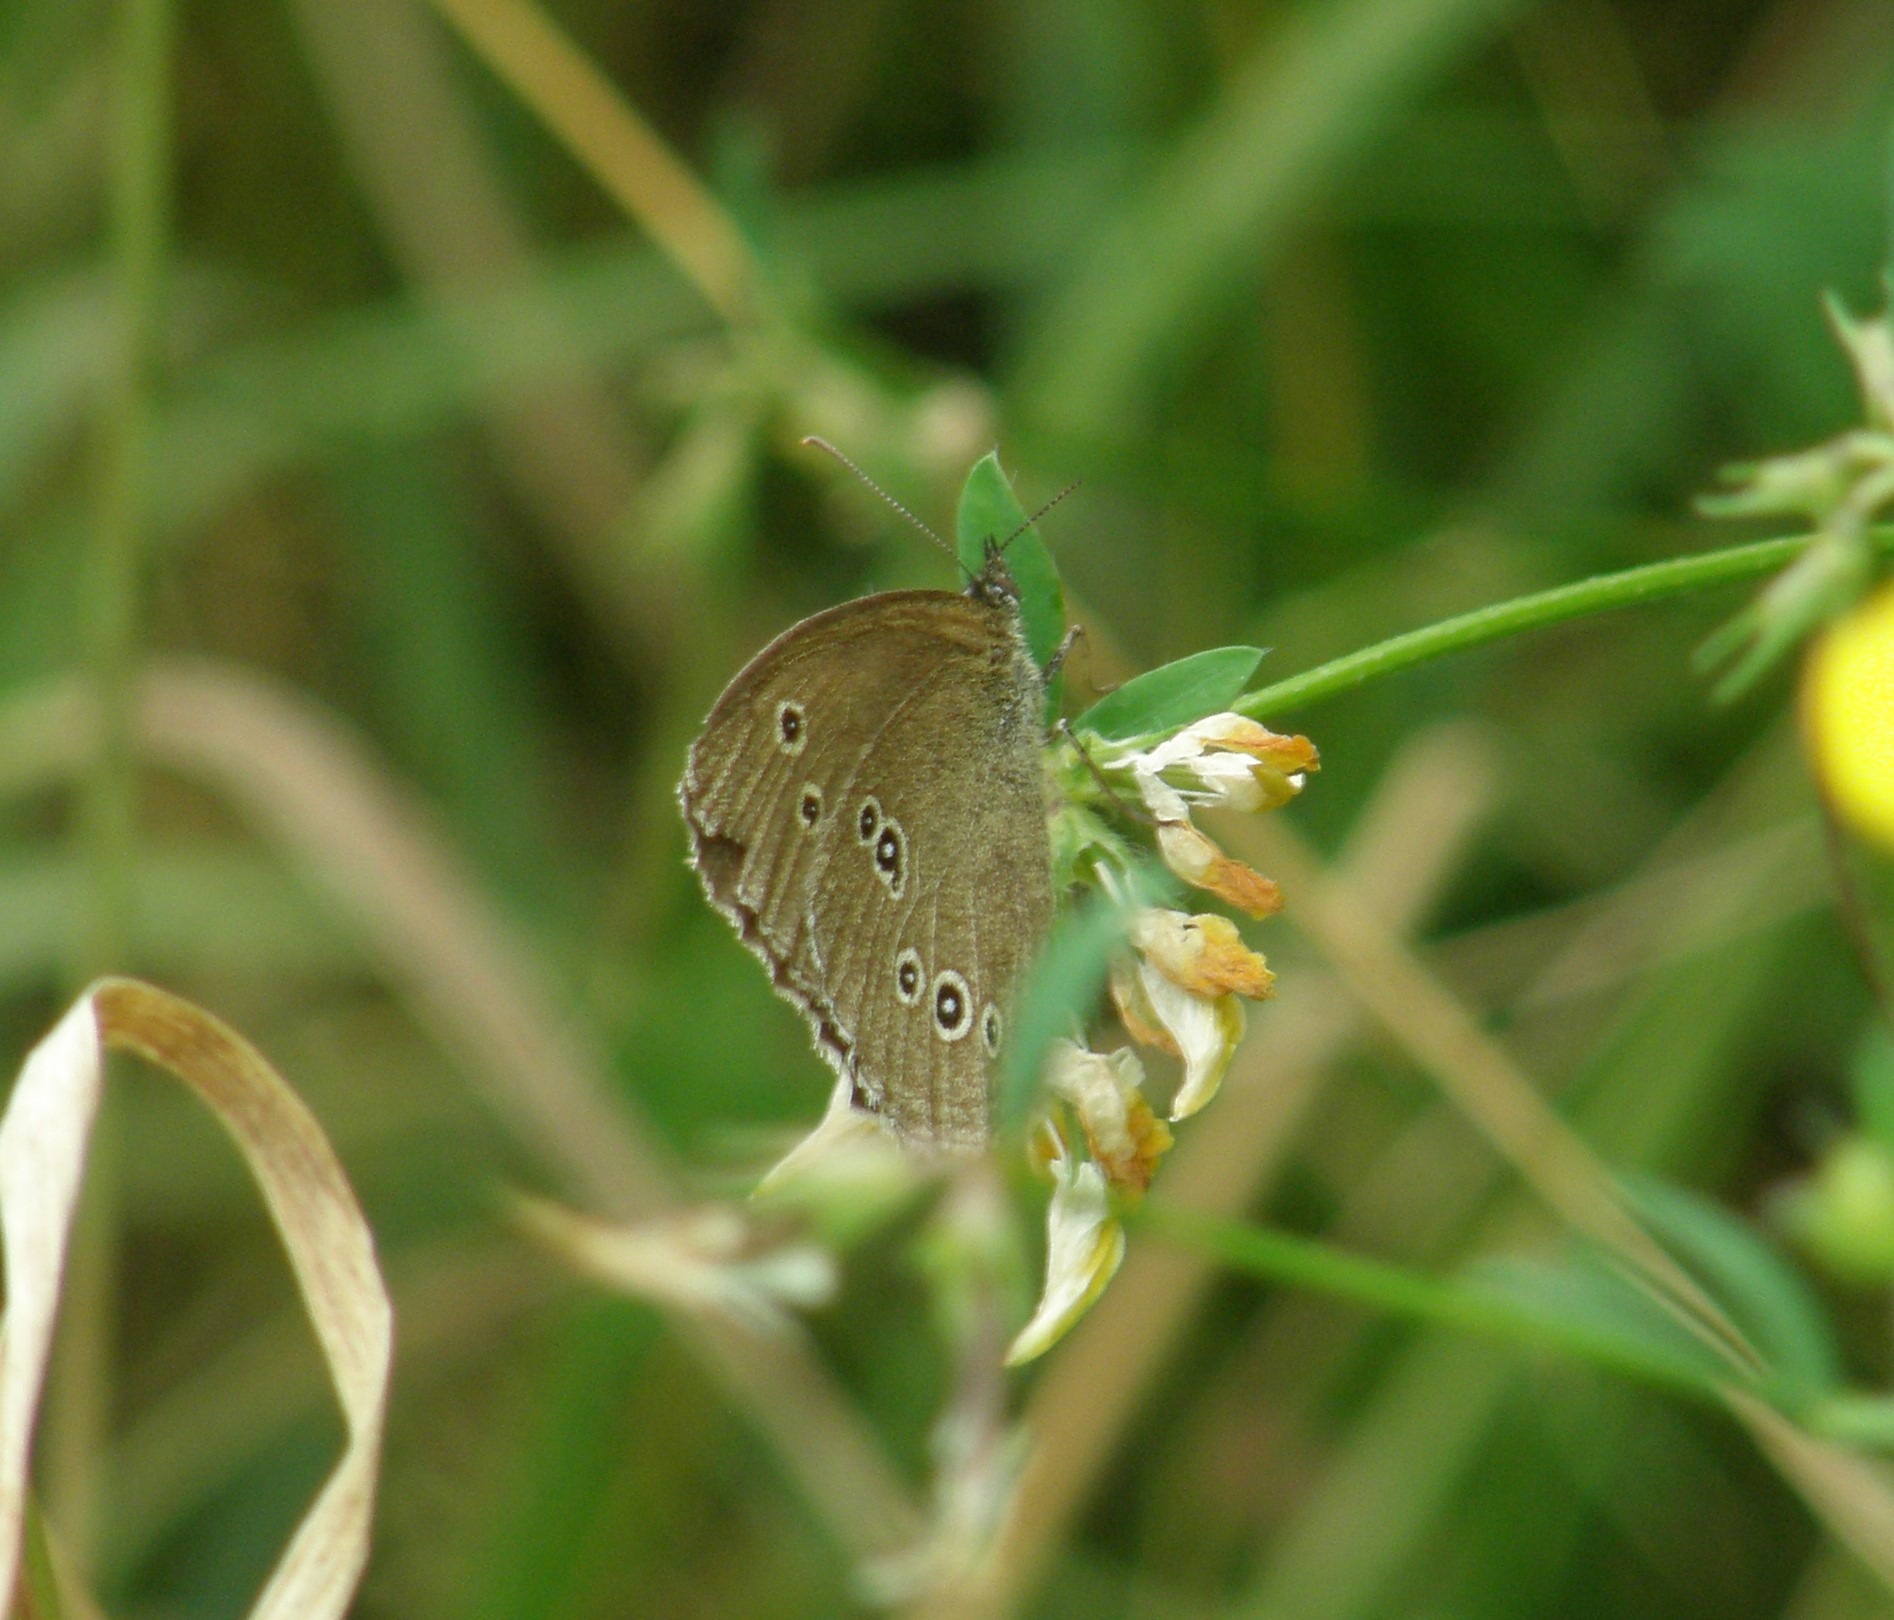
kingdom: Animalia
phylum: Arthropoda
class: Insecta
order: Lepidoptera
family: Nymphalidae
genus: Aphantopus
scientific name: Aphantopus hyperantus
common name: Engrandøje
